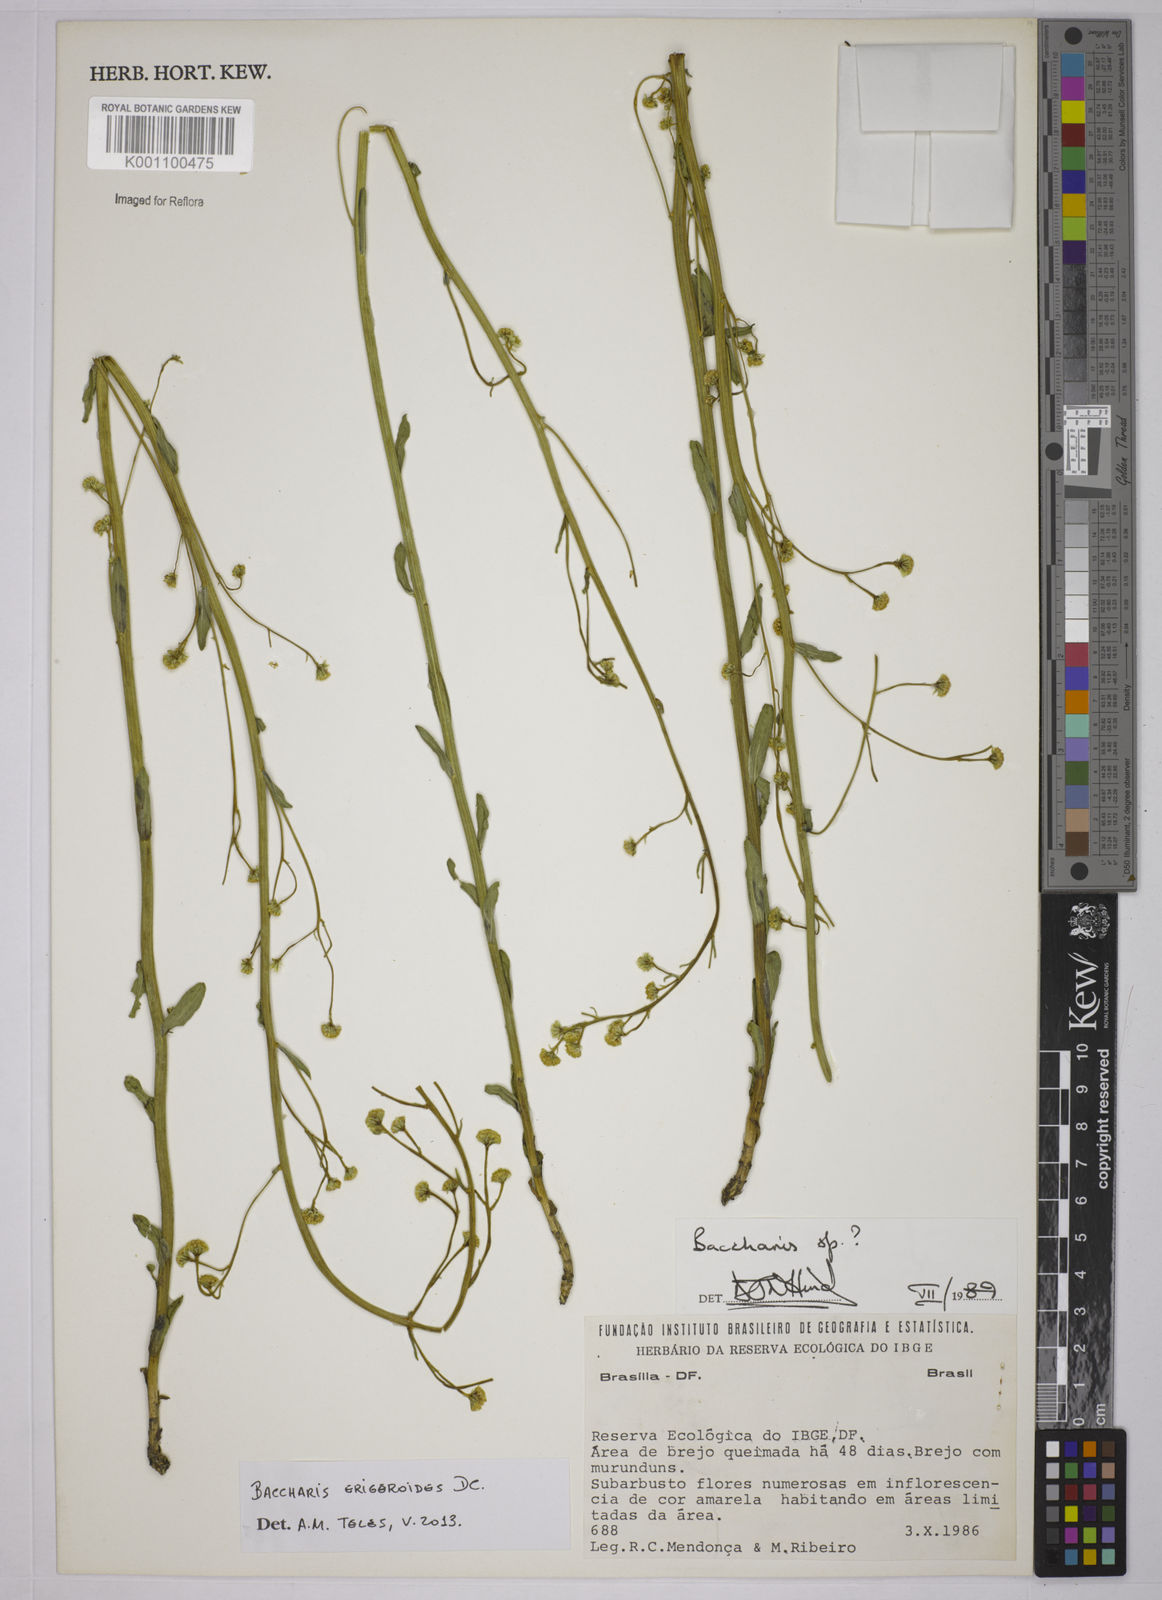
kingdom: Plantae
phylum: Tracheophyta
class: Magnoliopsida
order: Asterales
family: Asteraceae
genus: Baccharis
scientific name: Baccharis erigeroides
